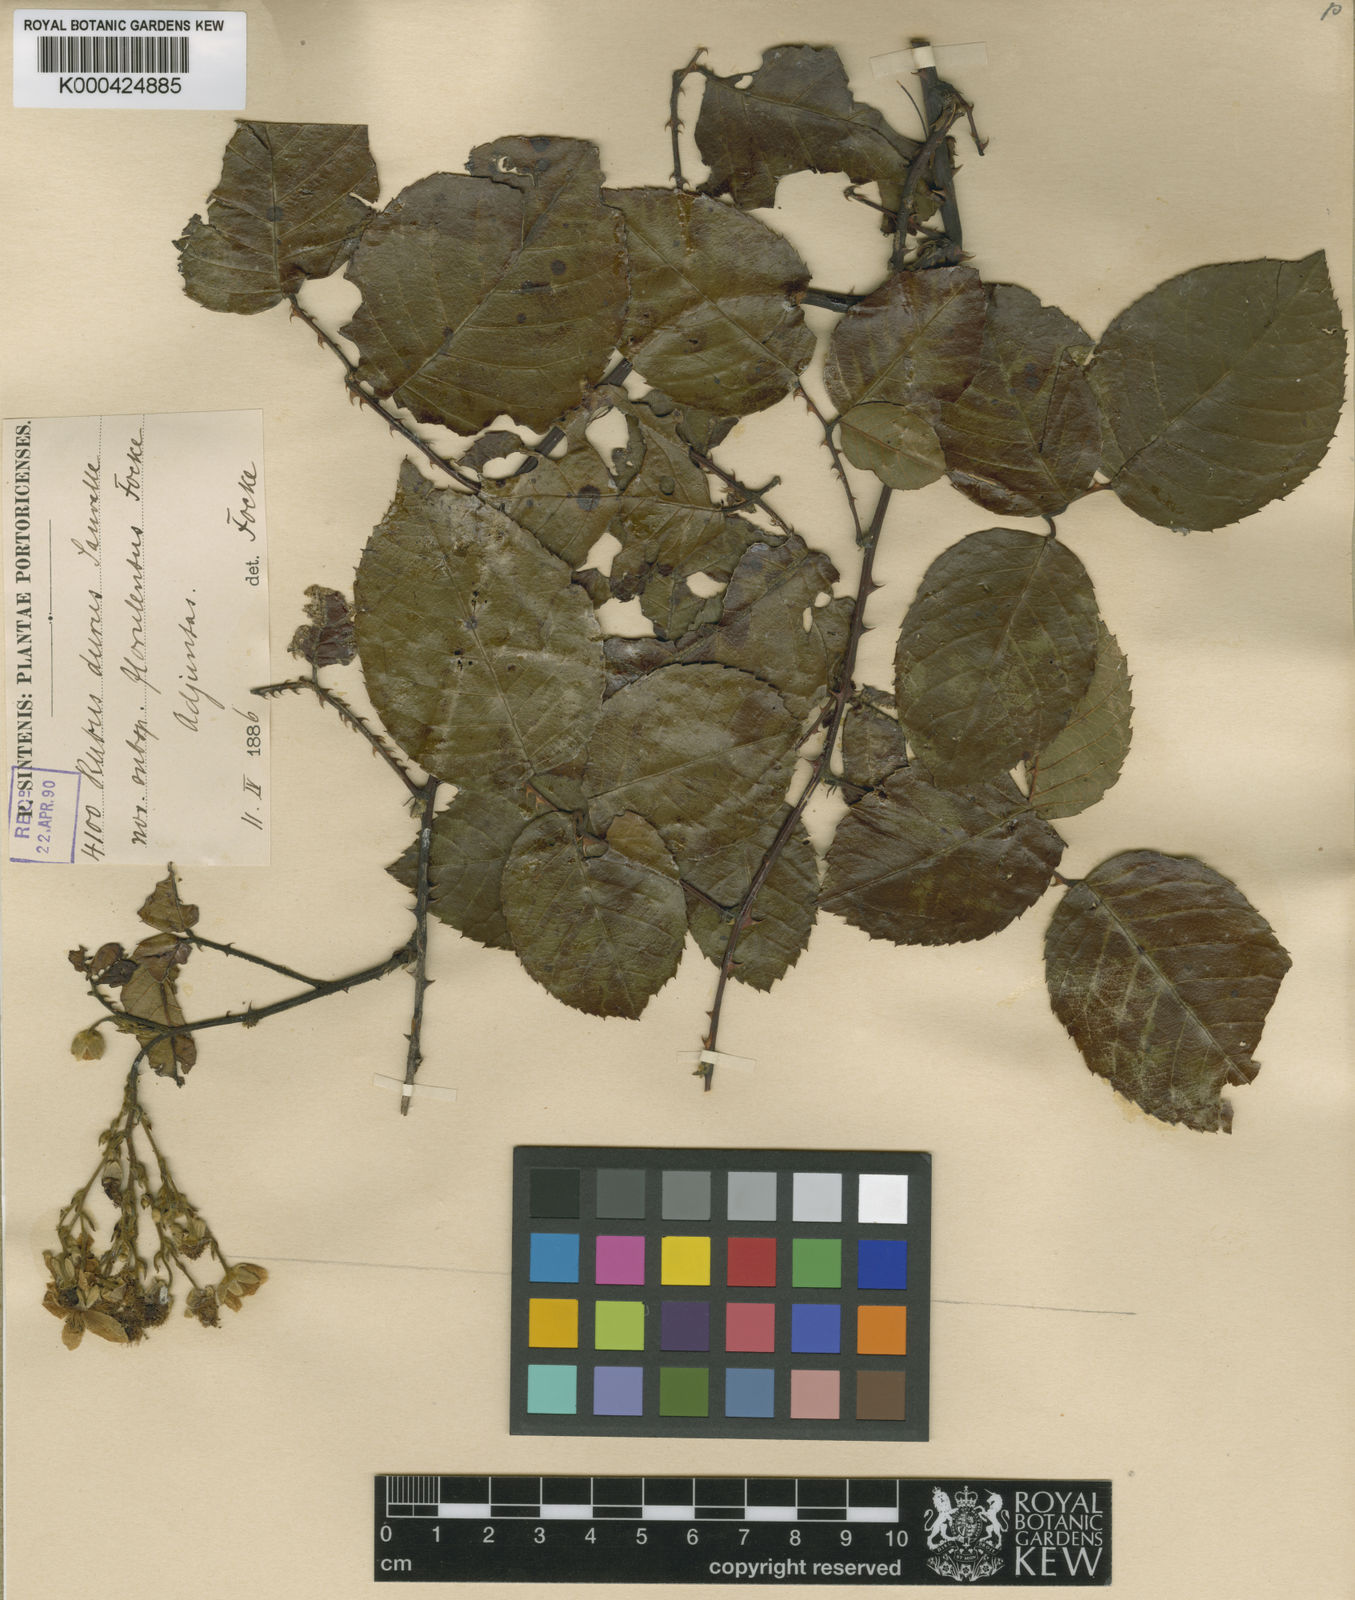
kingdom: Plantae
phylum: Tracheophyta
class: Magnoliopsida
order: Rosales
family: Rosaceae
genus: Rubus
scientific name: Rubus florulentus
